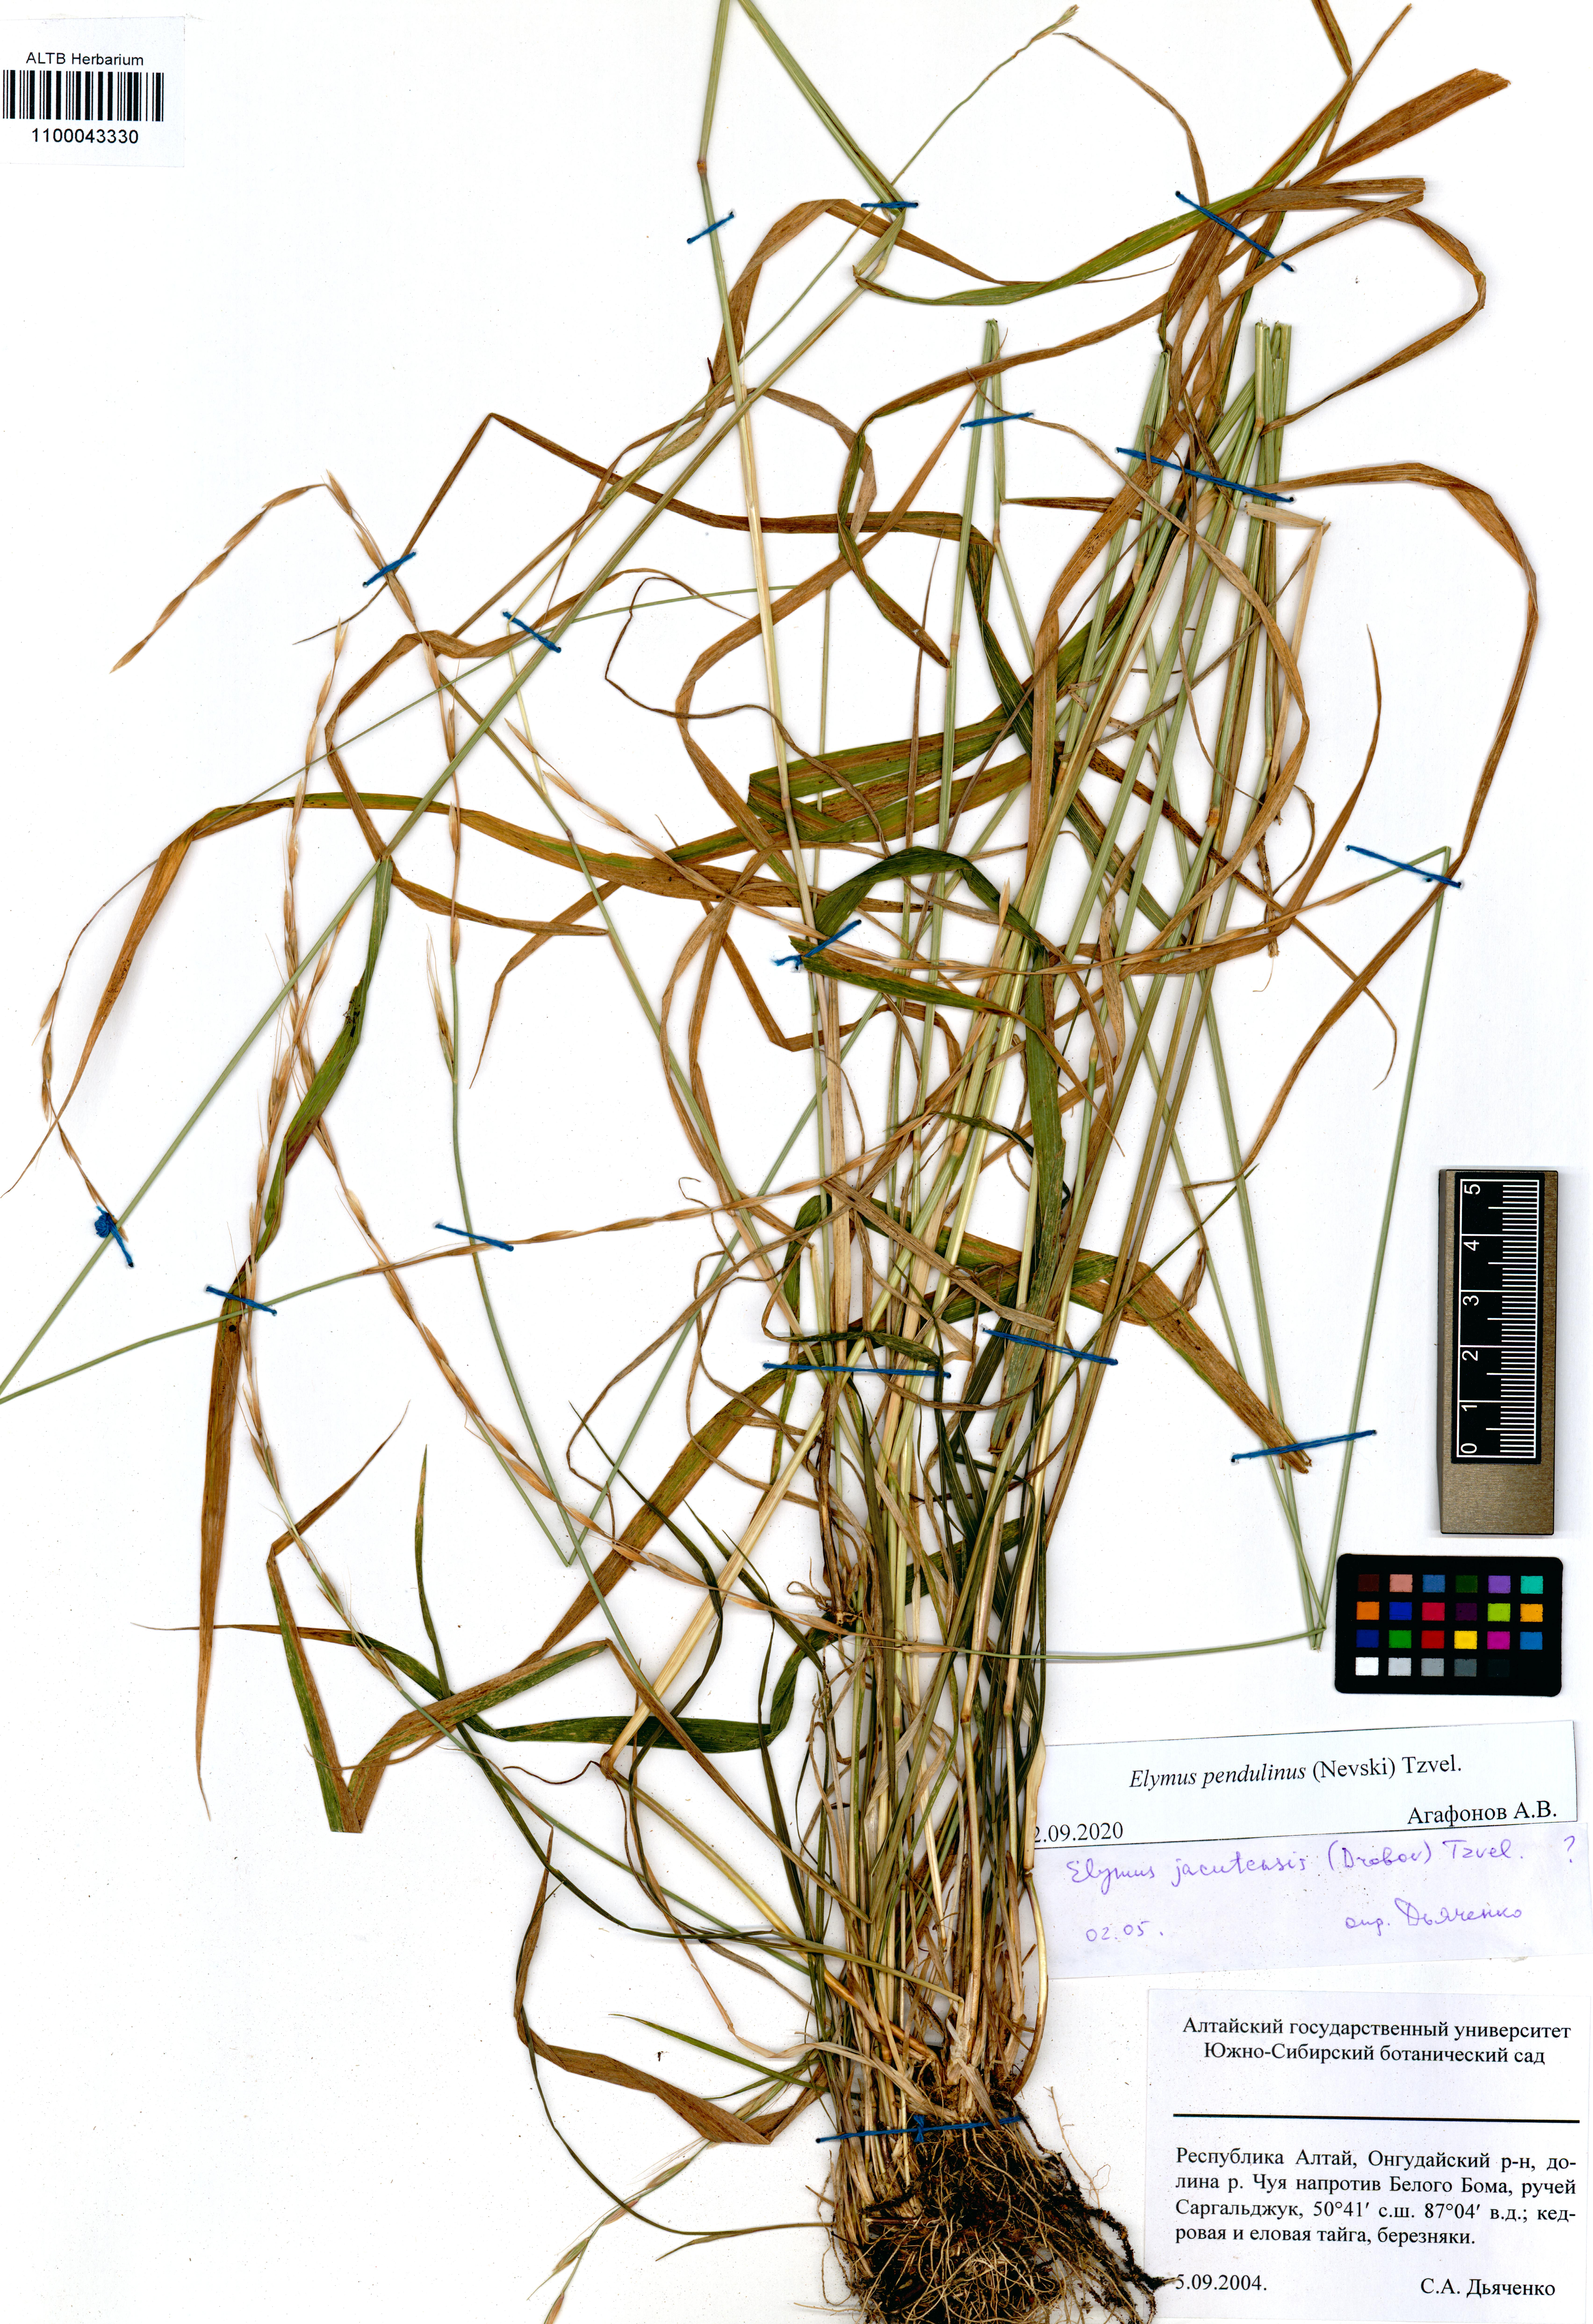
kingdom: Plantae
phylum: Tracheophyta
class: Liliopsida
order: Poales
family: Poaceae
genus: Elymus
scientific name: Elymus pendulinus
